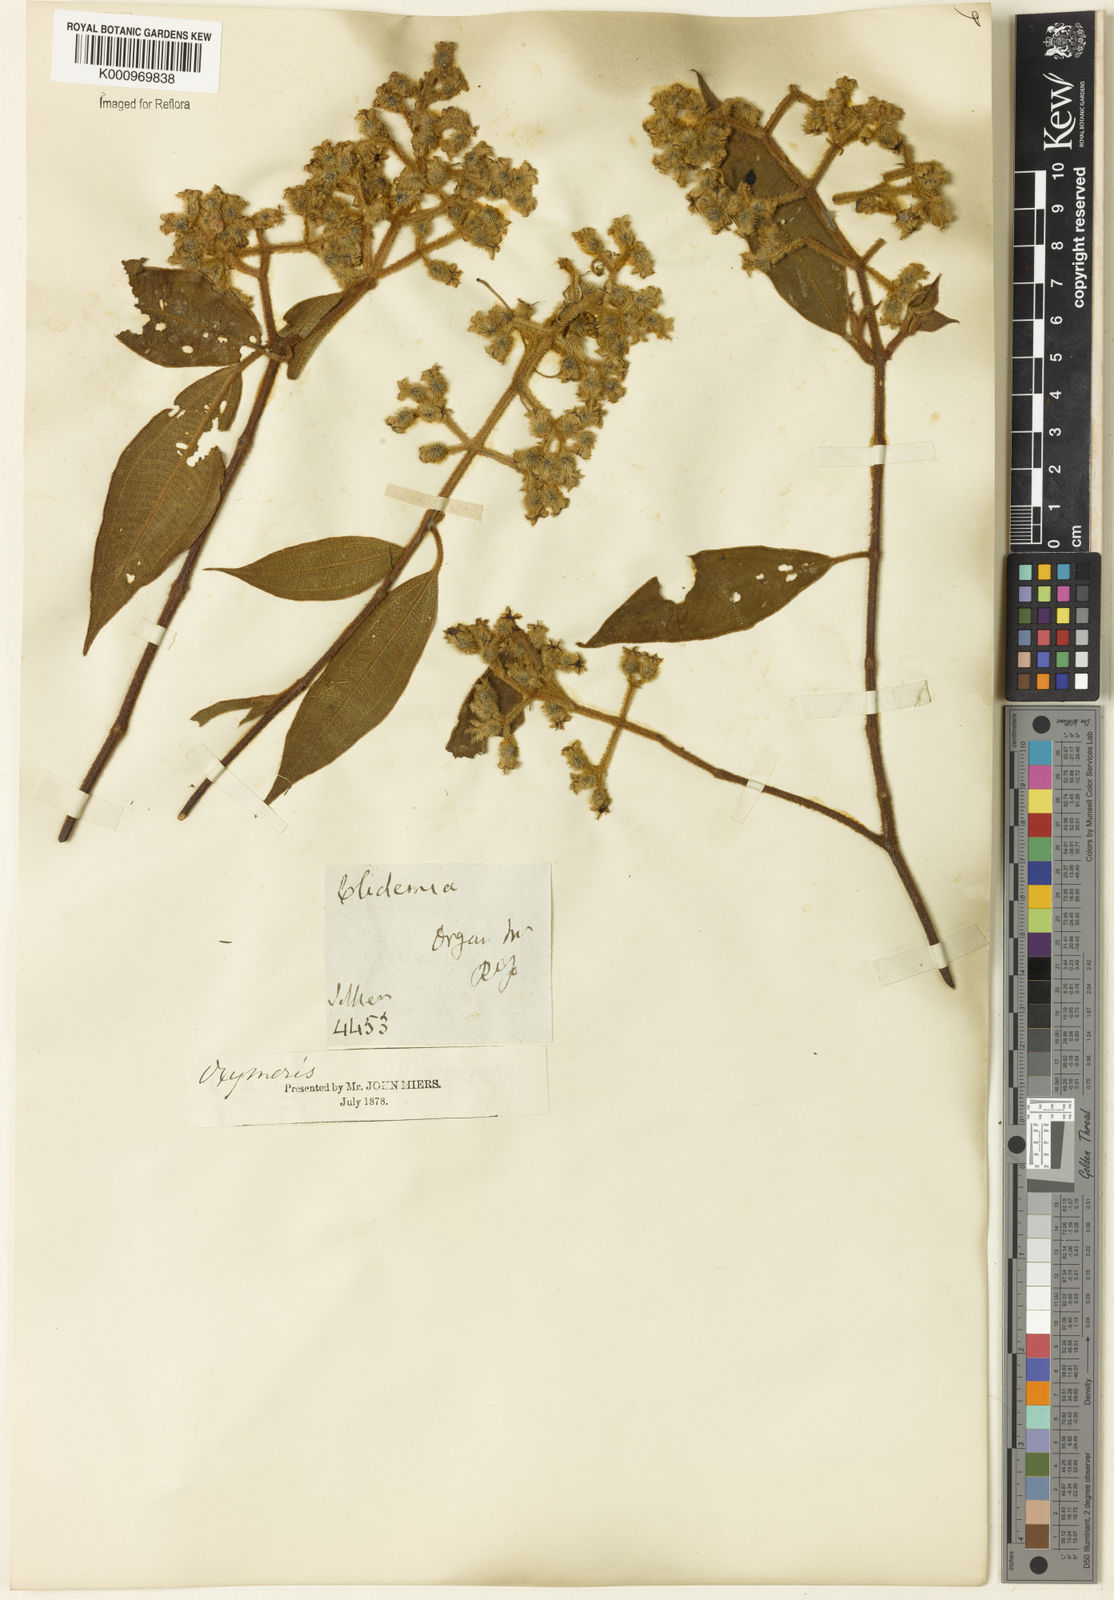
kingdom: Plantae
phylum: Tracheophyta
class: Magnoliopsida
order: Myrtales
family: Melastomataceae
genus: Miconia
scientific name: Miconia
